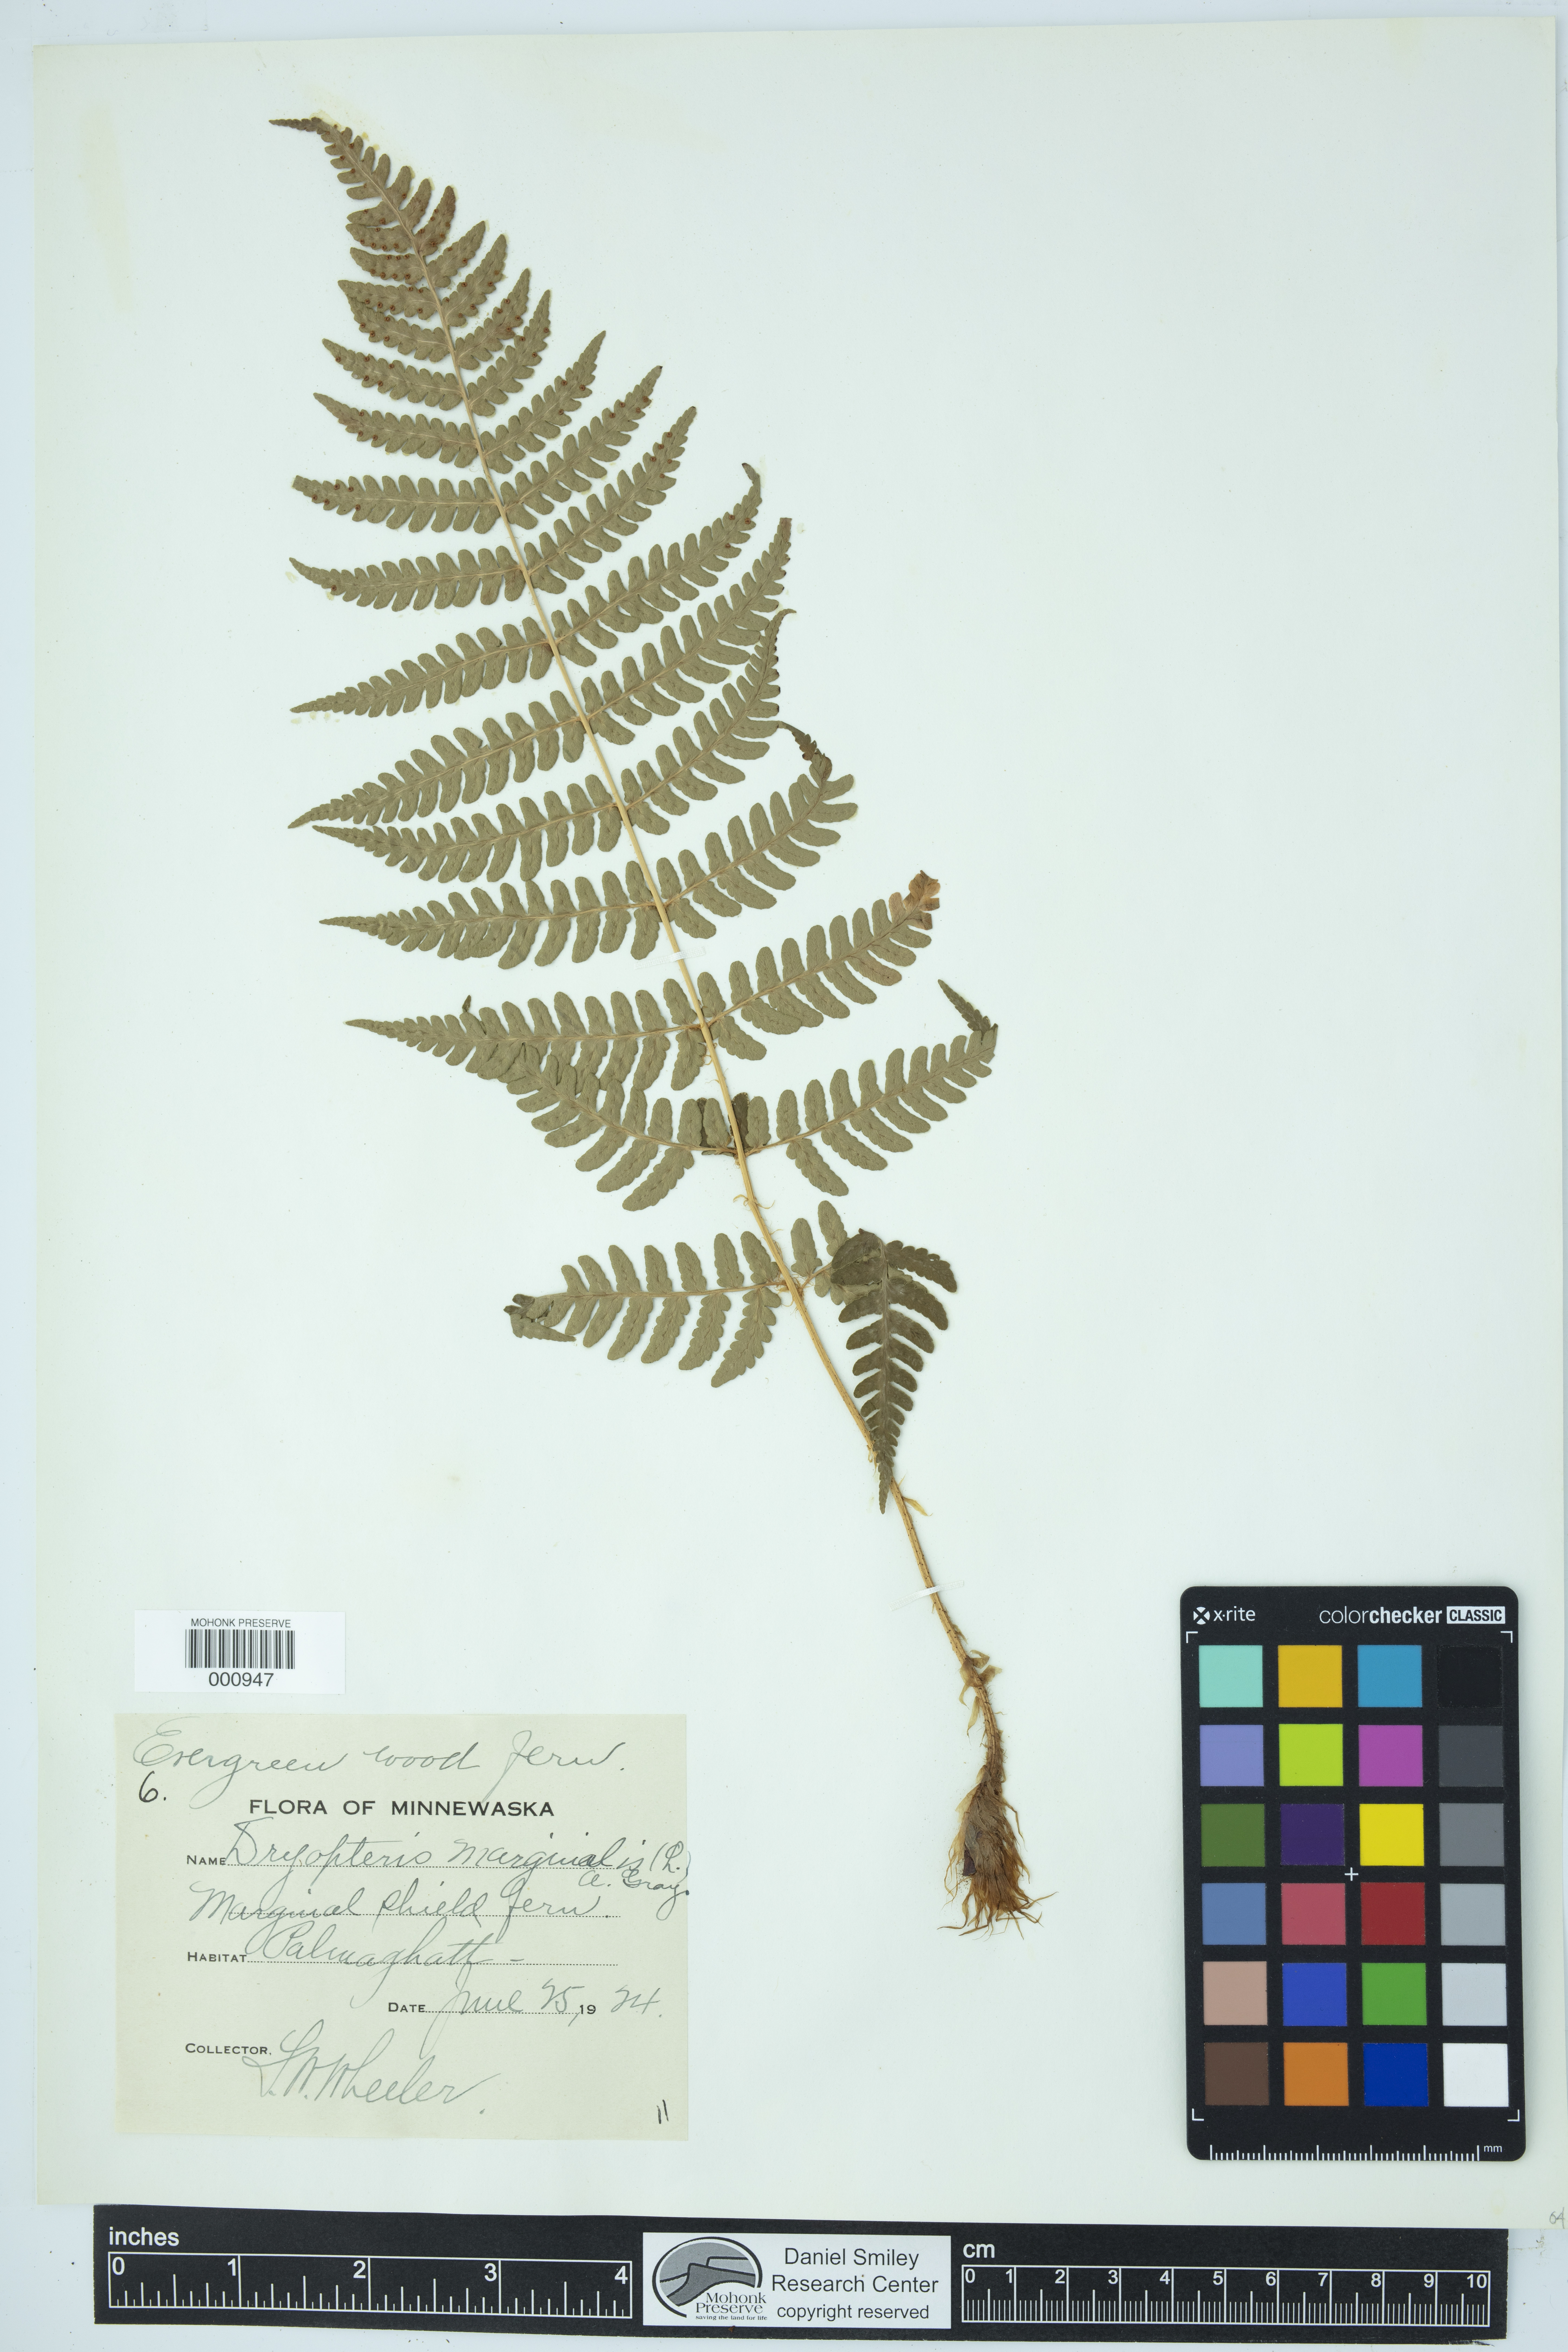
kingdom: Plantae
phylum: Tracheophyta
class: Polypodiopsida
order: Polypodiales
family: Dryopteridaceae
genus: Dryopteris
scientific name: Dryopteris marginalis
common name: Marginal wood fern
